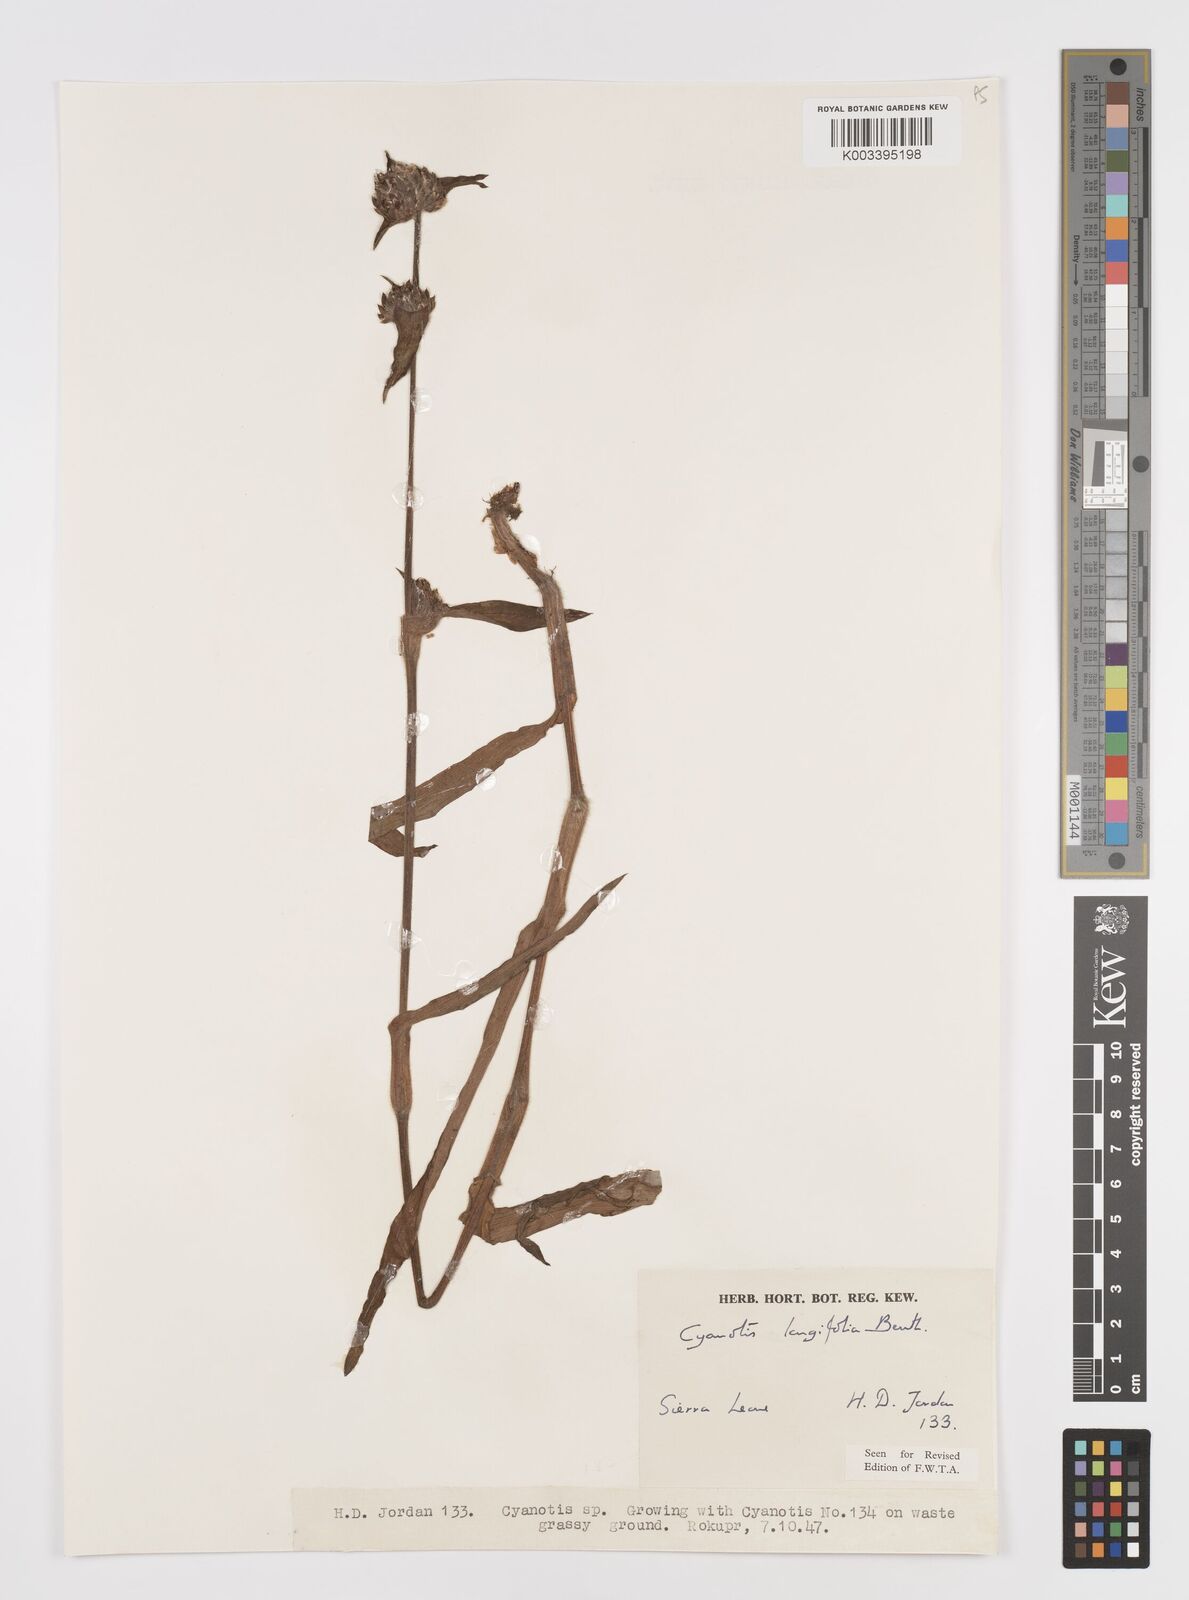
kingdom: Plantae
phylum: Tracheophyta
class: Liliopsida
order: Commelinales
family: Commelinaceae
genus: Cyanotis
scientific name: Cyanotis
